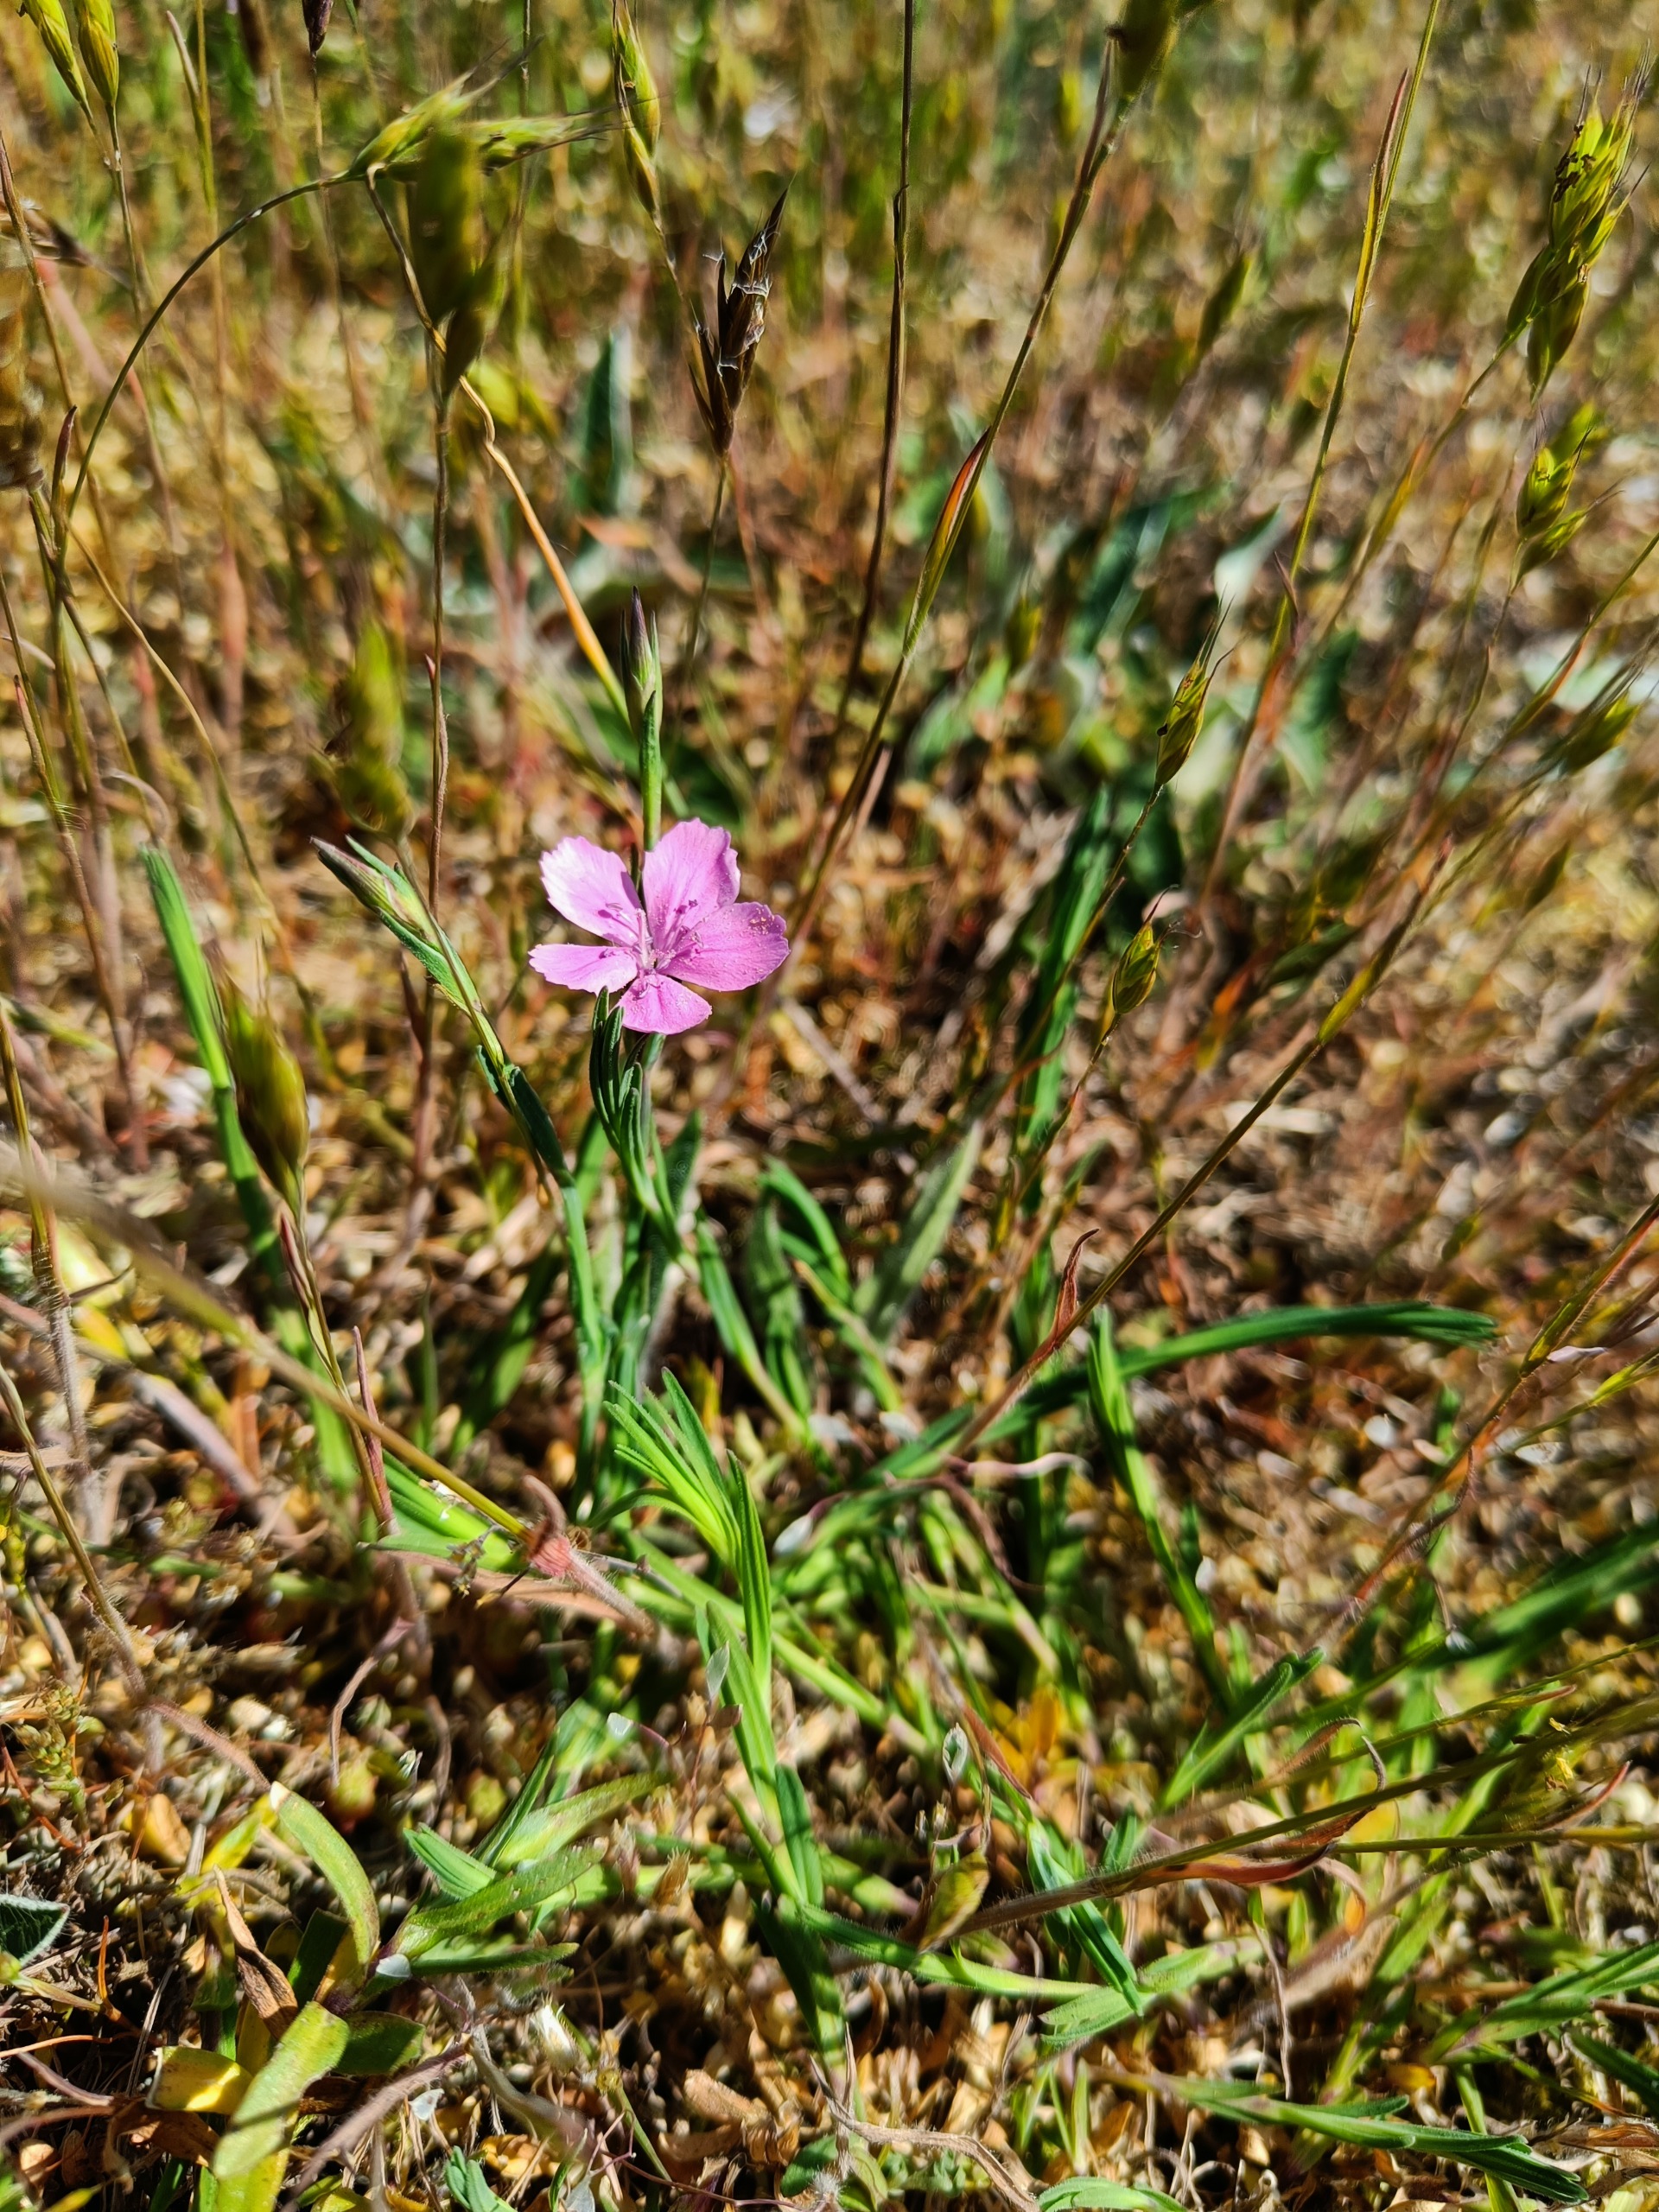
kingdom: Plantae
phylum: Tracheophyta
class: Magnoliopsida
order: Caryophyllales
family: Caryophyllaceae
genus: Dianthus
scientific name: Dianthus deltoides
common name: Bakke-nellike
